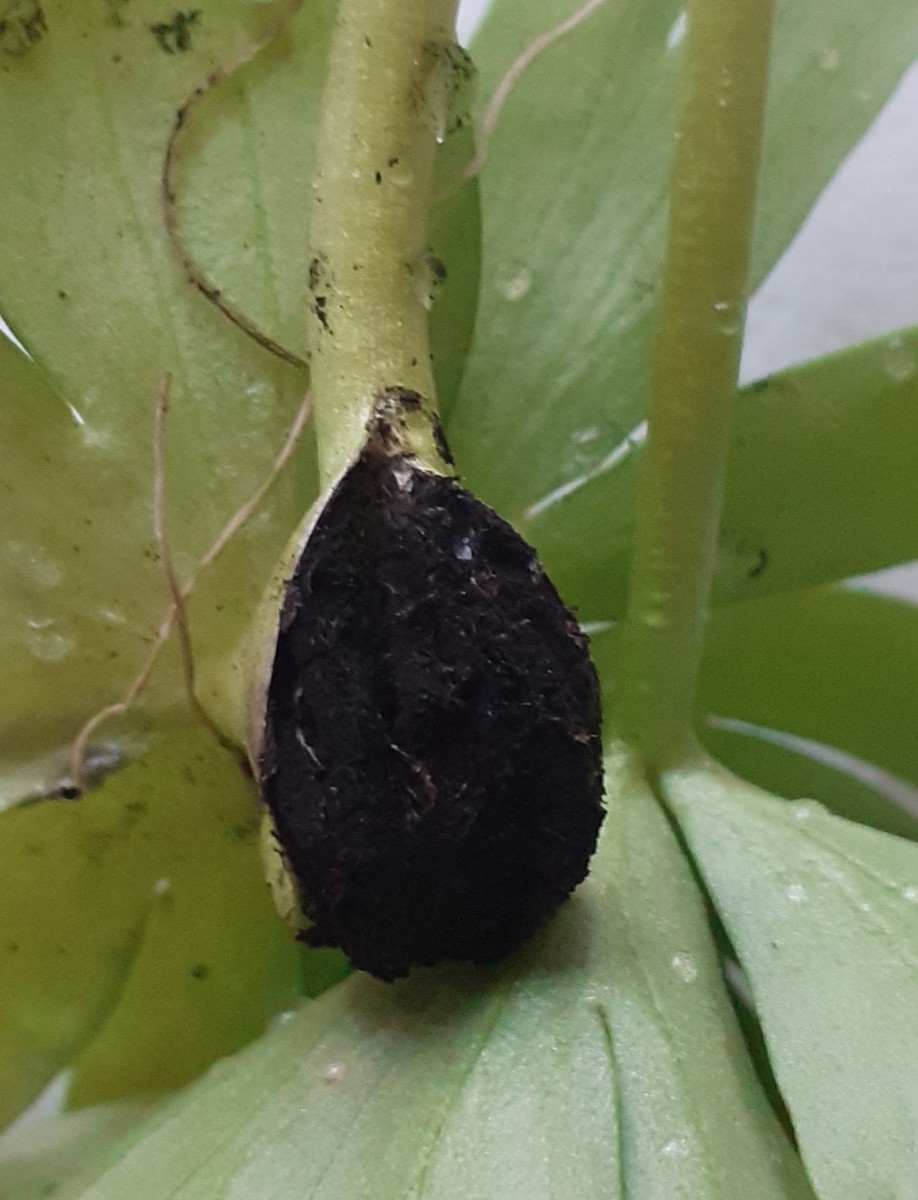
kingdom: Fungi
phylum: Basidiomycota
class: Ustilaginomycetes
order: Urocystidales
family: Urocystidaceae
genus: Urocystis
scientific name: Urocystis eranthidis
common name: erantis-brand
